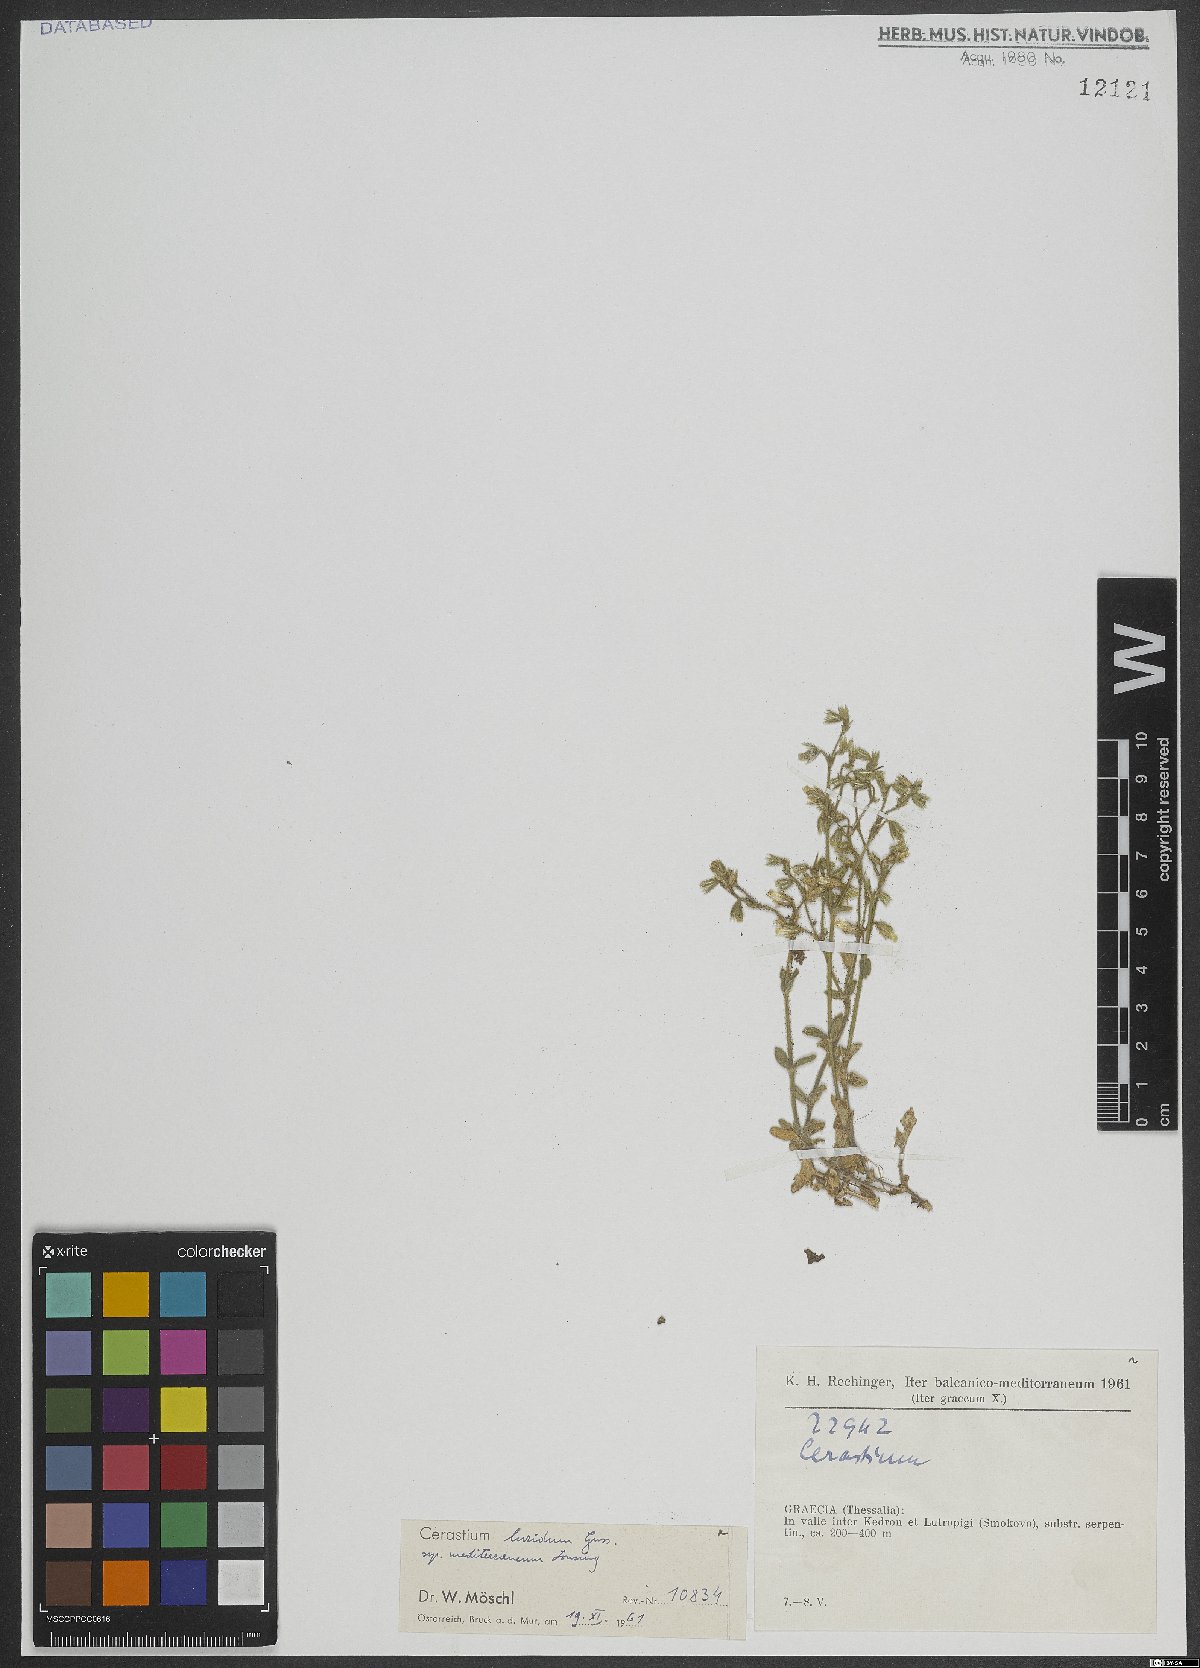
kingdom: Plantae
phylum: Tracheophyta
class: Magnoliopsida
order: Caryophyllales
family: Caryophyllaceae
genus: Cerastium
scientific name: Cerastium brachypetalum
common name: Grey mouse-ear
